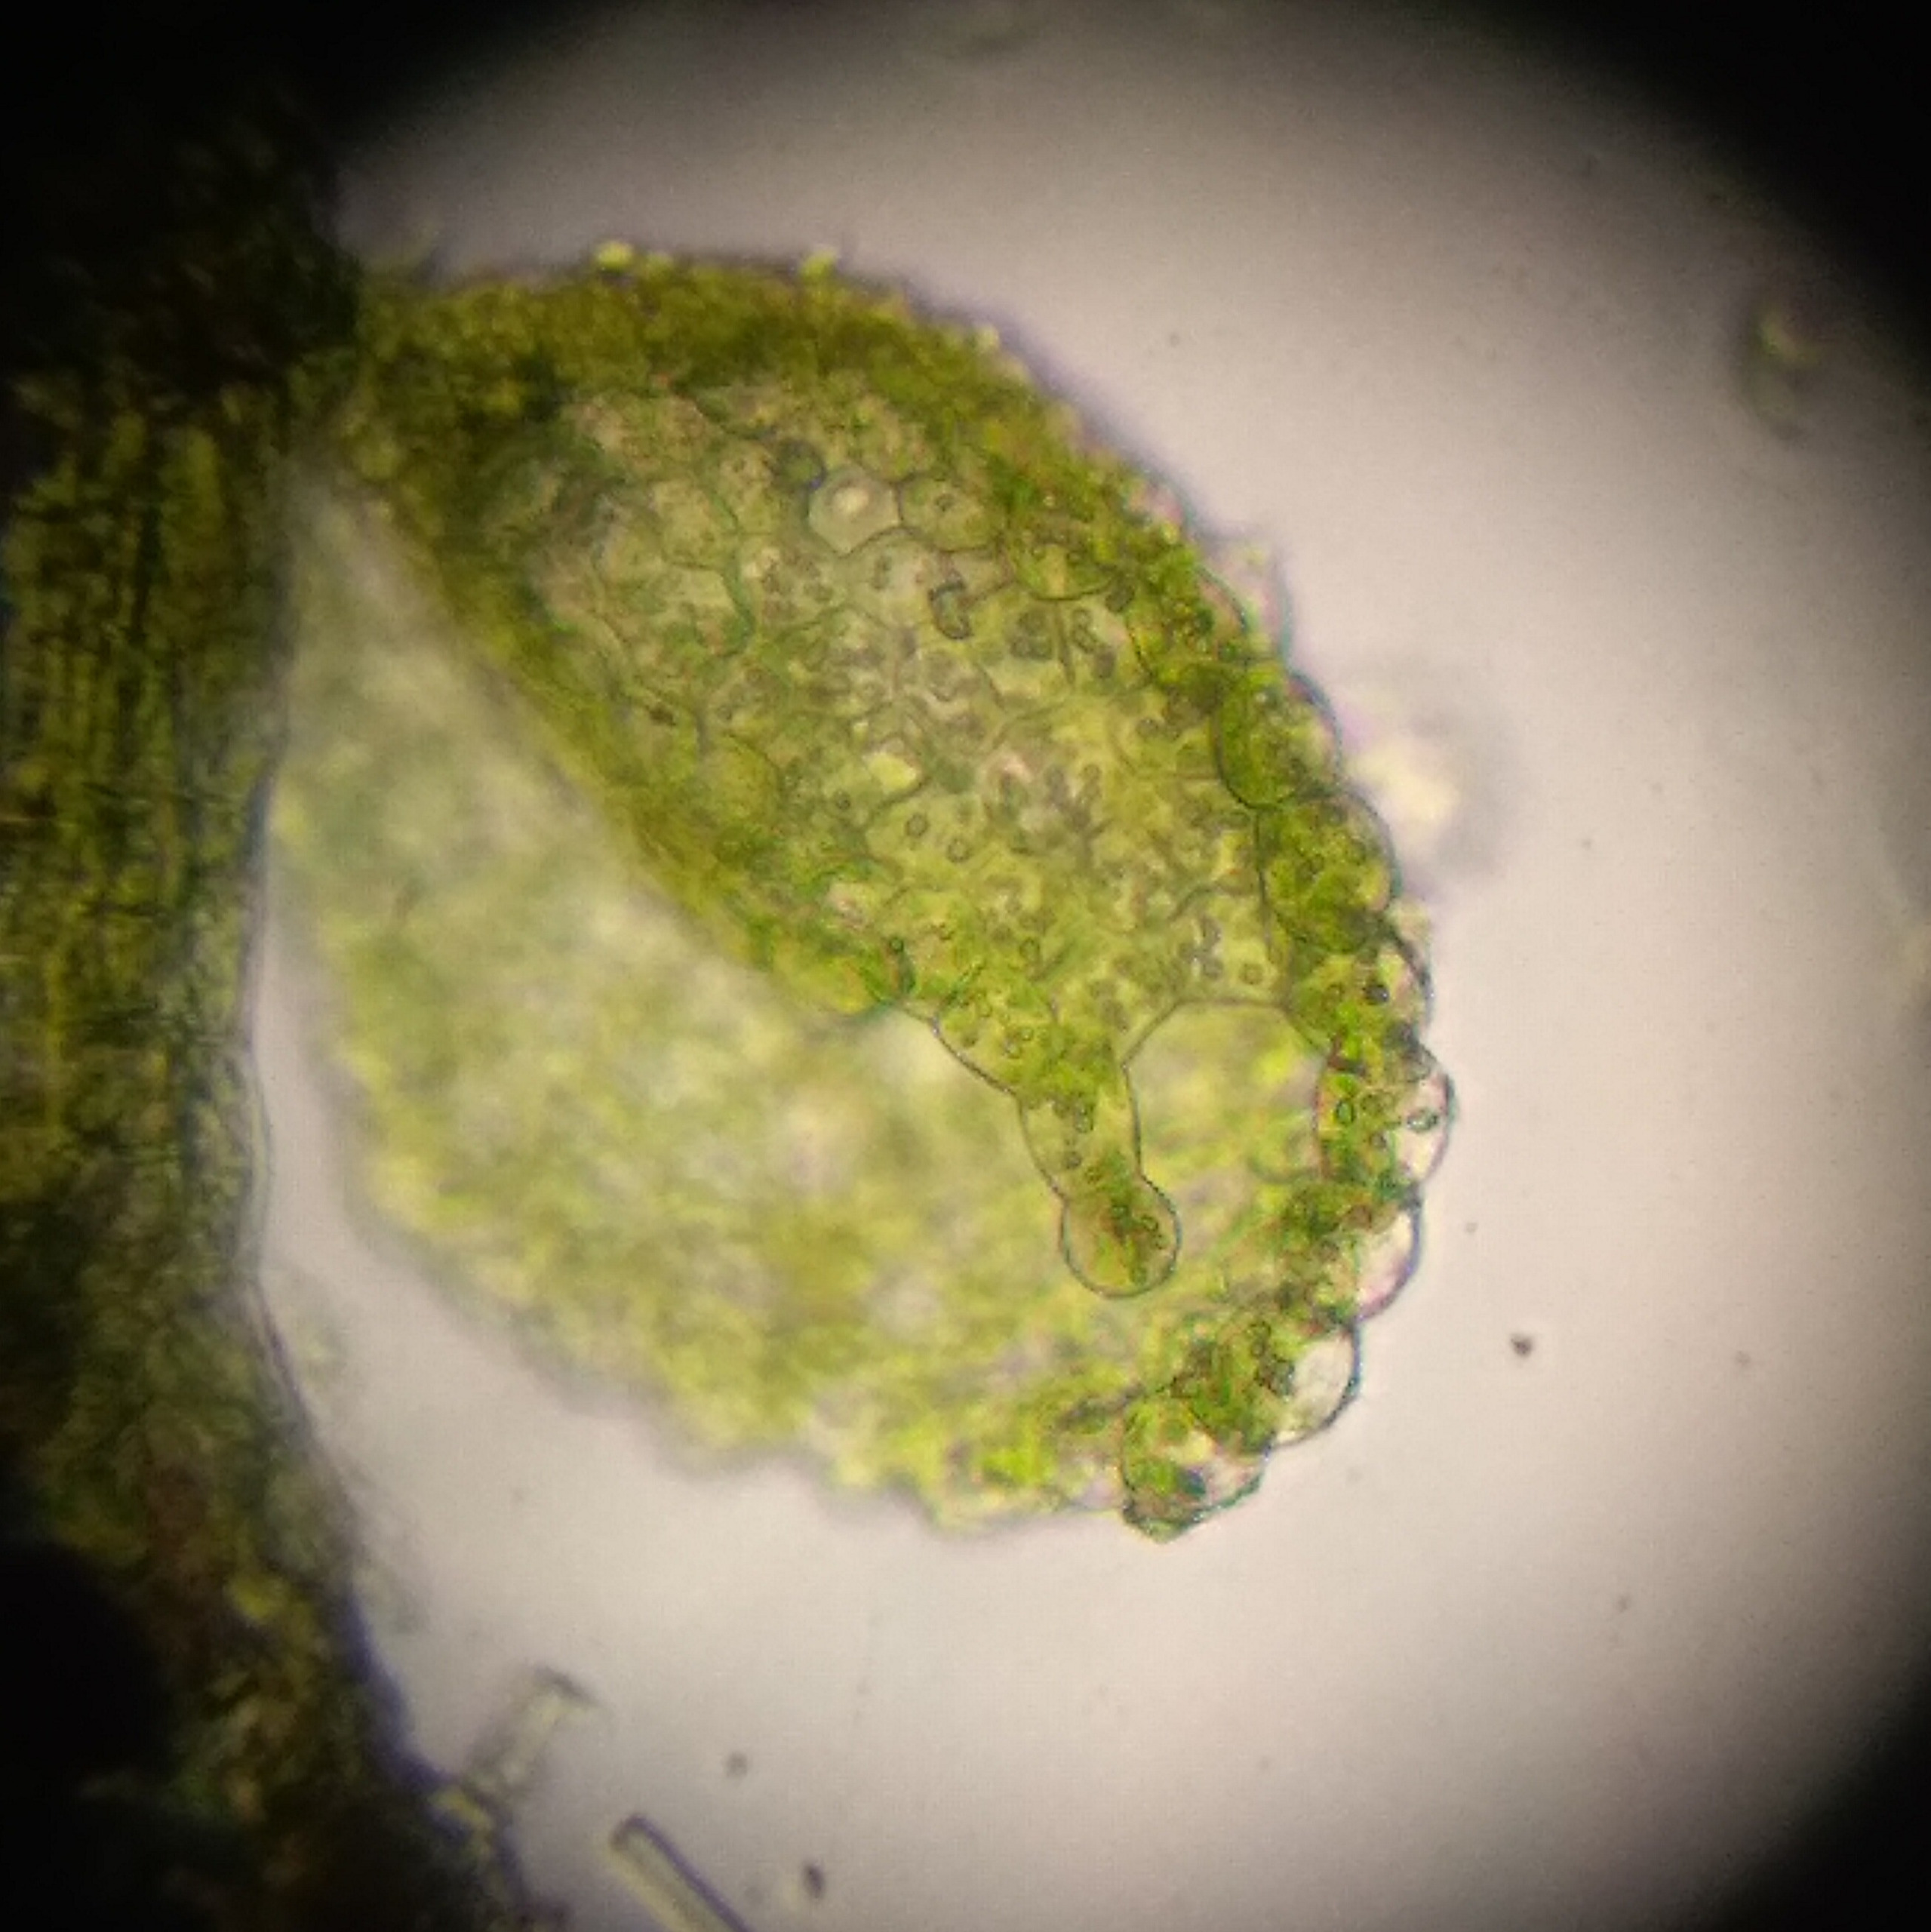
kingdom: Plantae
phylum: Marchantiophyta
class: Jungermanniopsida
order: Porellales
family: Lejeuneaceae
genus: Myriocoleopsis
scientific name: Myriocoleopsis minutissima
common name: Liden pungmos
